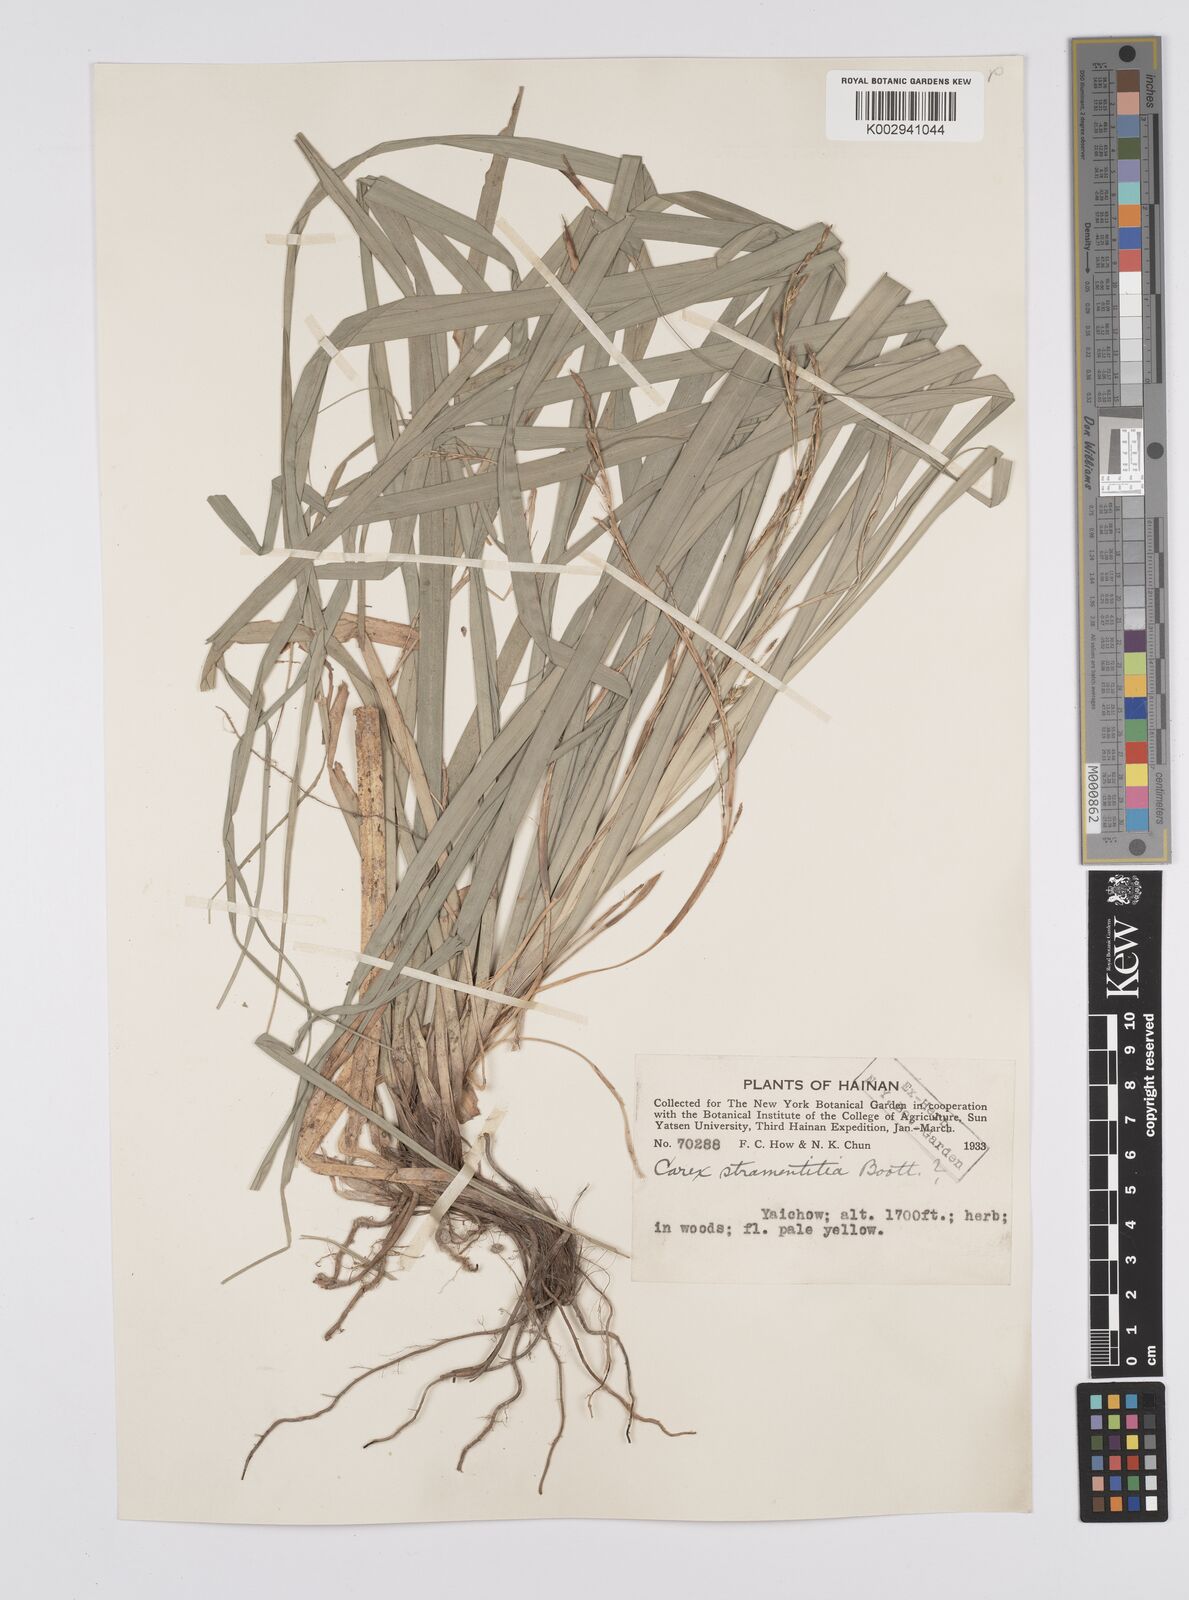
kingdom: Plantae
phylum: Tracheophyta
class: Liliopsida
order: Poales
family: Cyperaceae
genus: Carex
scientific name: Carex cryptostachys
